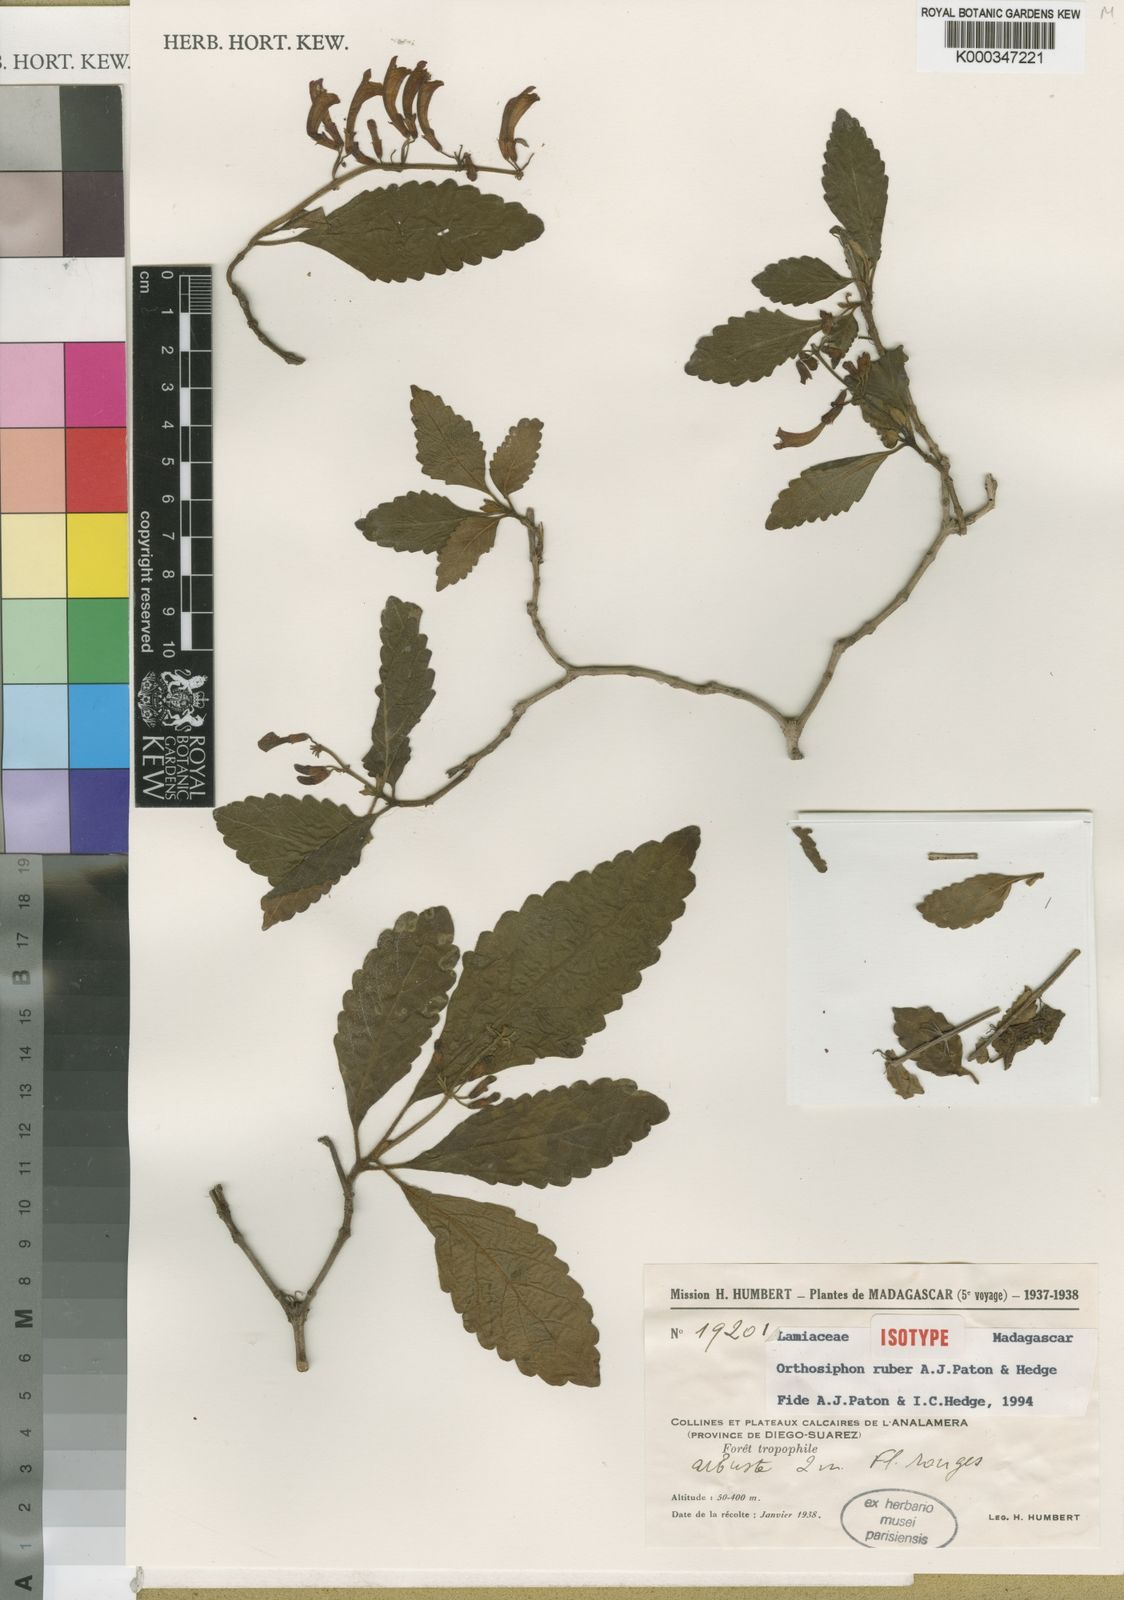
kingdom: Plantae
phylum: Tracheophyta
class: Magnoliopsida
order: Lamiales
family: Lamiaceae
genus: Orthosiphon
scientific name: Orthosiphon ruber
